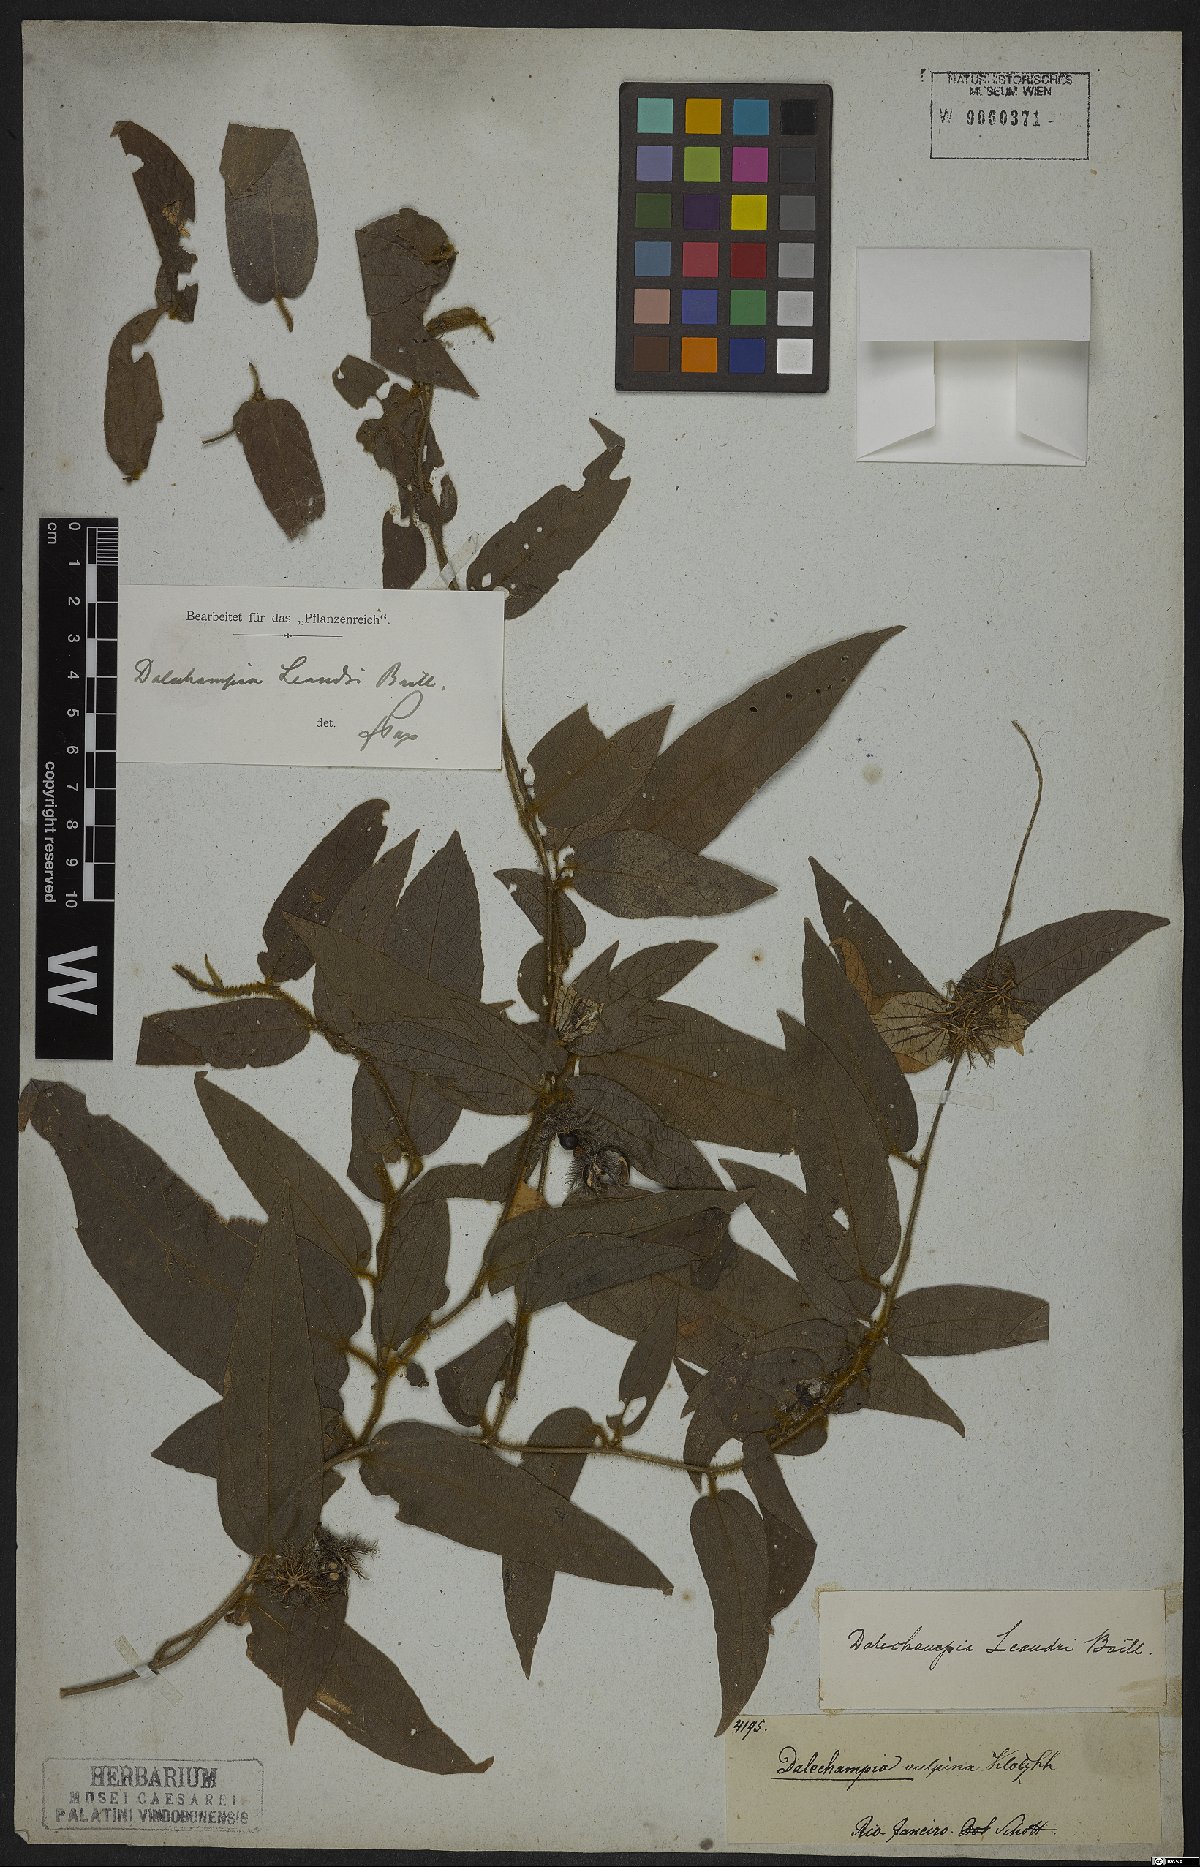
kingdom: Plantae
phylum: Tracheophyta
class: Magnoliopsida
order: Malpighiales
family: Euphorbiaceae
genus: Dalechampia
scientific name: Dalechampia leandrii
